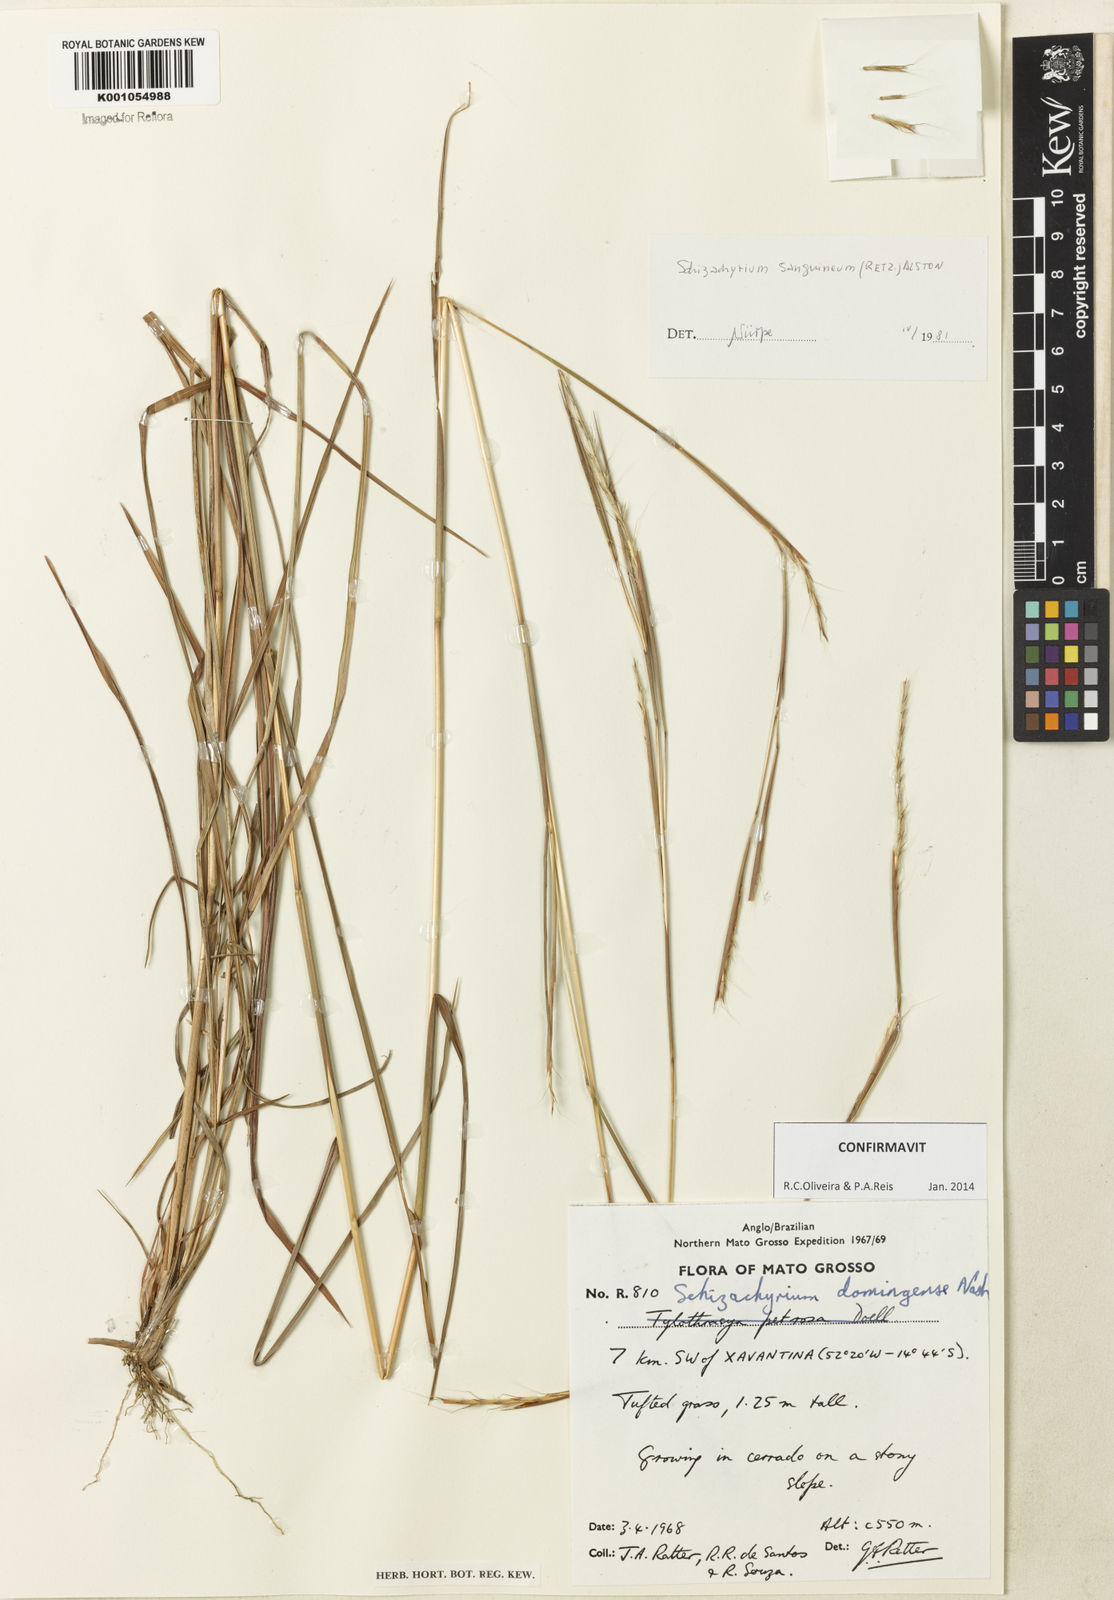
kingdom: Plantae
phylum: Tracheophyta
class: Liliopsida
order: Poales
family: Poaceae
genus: Schizachyrium
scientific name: Schizachyrium sanguineum
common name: Crimson bluestem
